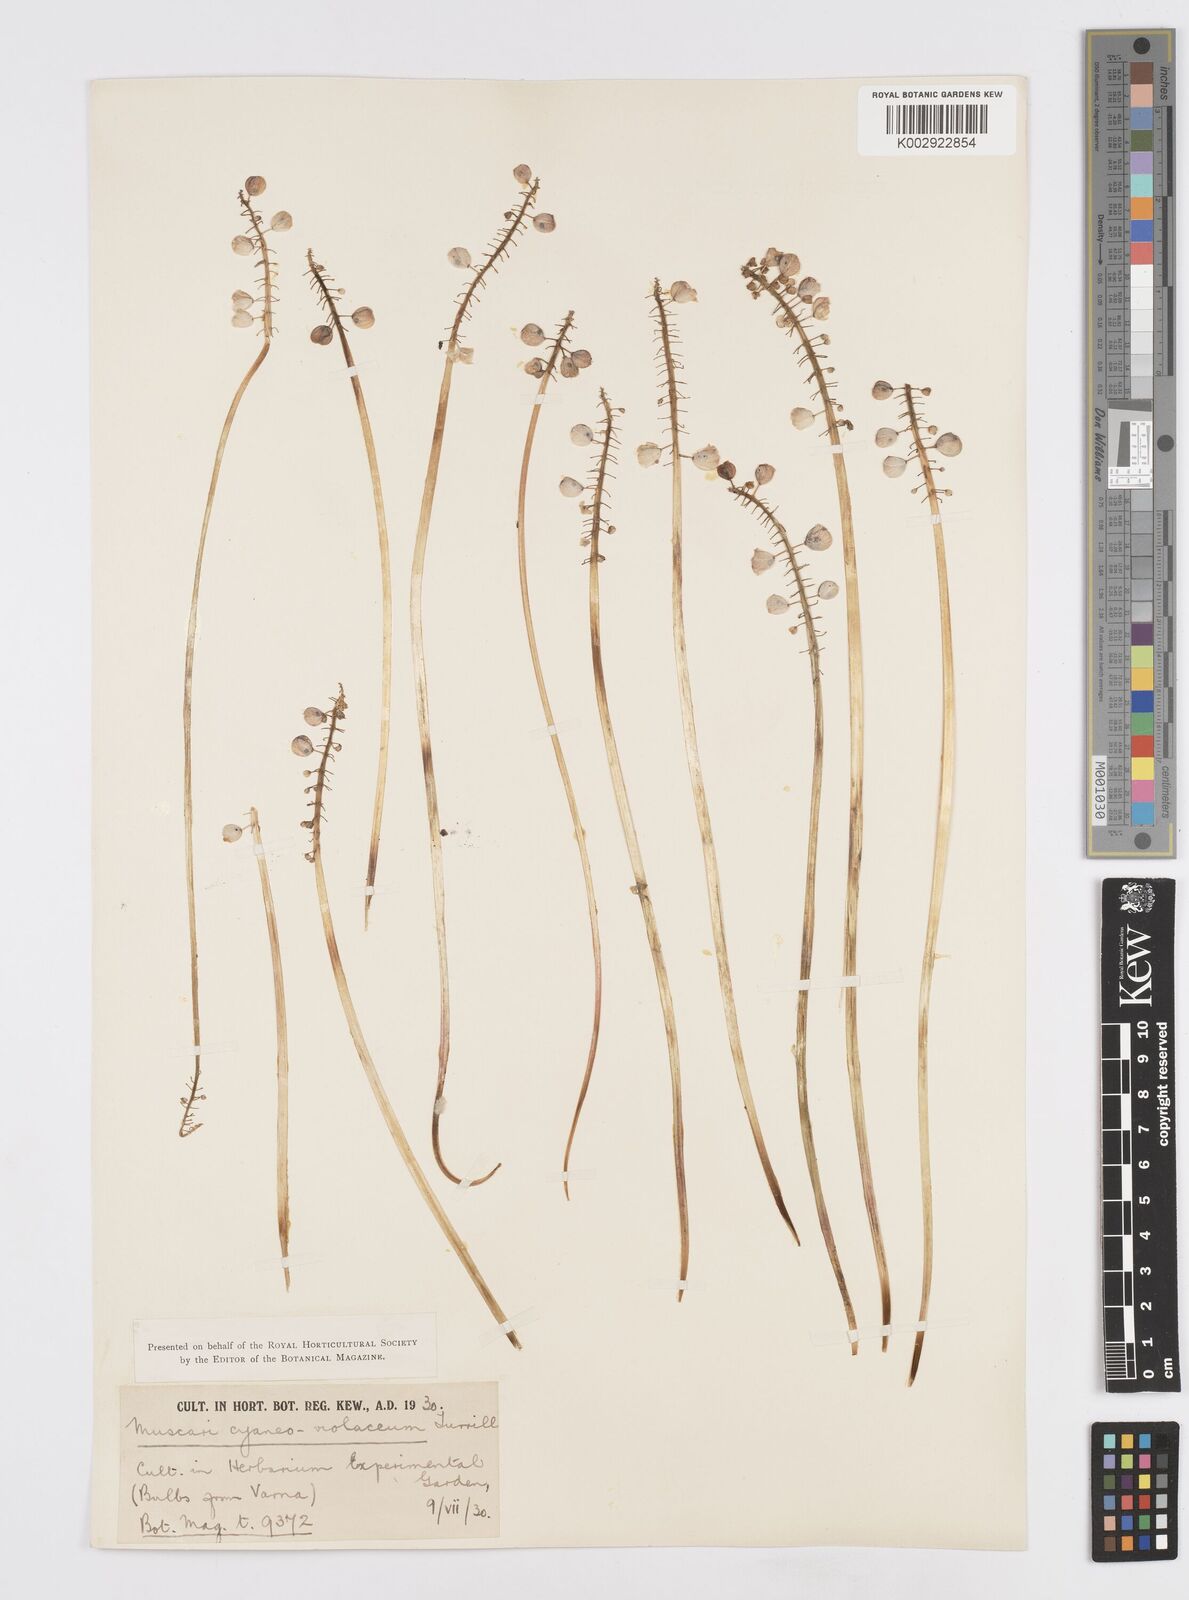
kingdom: Plantae
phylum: Tracheophyta
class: Liliopsida
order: Asparagales
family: Asparagaceae
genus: Muscari
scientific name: Muscari armeniacum
